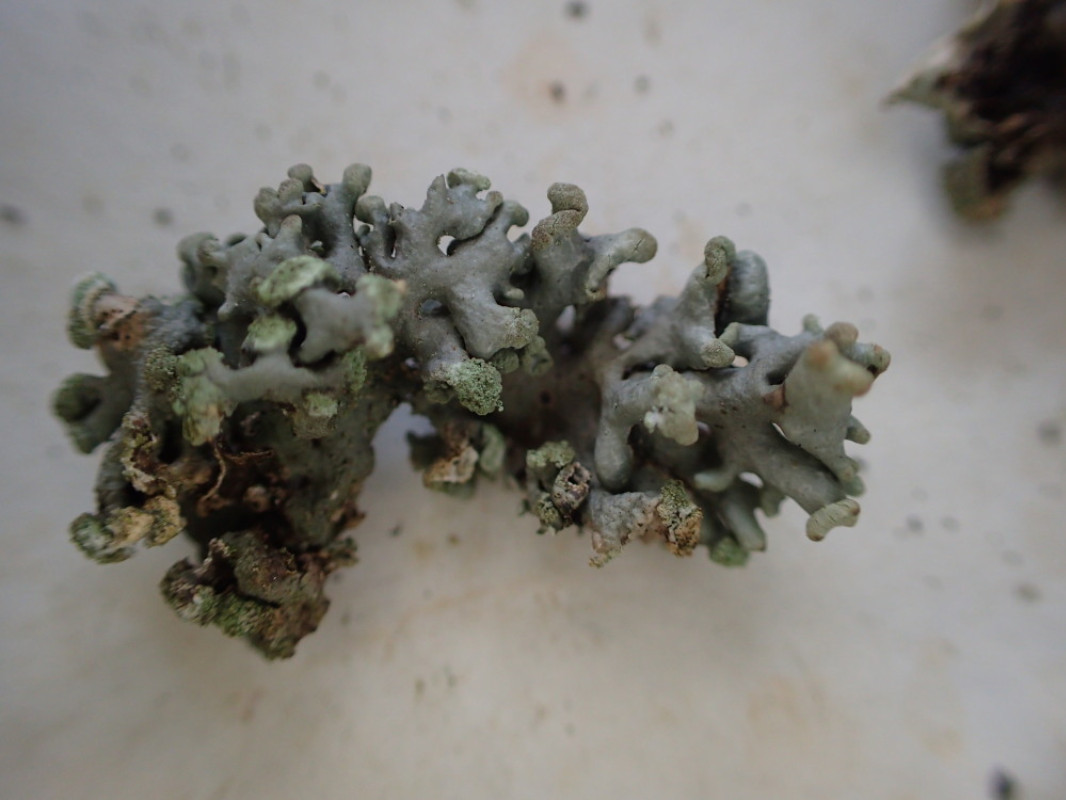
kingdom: Fungi
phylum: Ascomycota
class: Lecanoromycetes
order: Lecanorales
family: Parmeliaceae
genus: Hypogymnia
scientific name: Hypogymnia tubulosa
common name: finger-kvistlav
